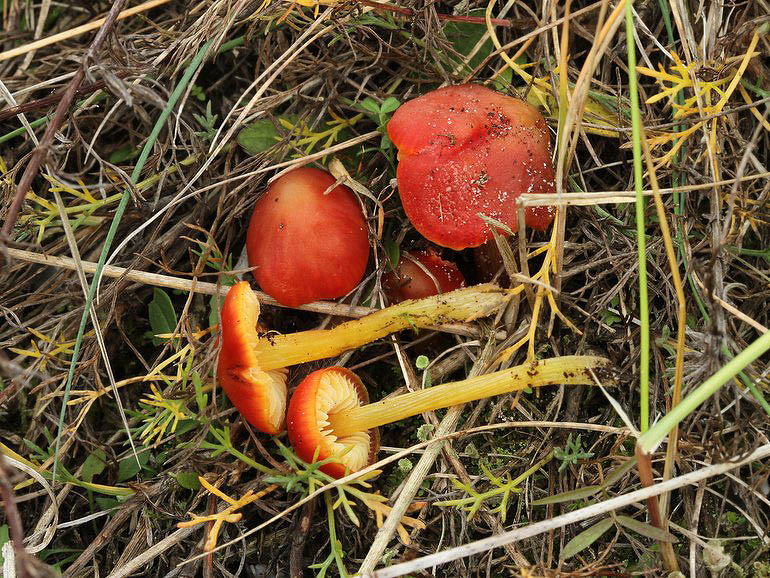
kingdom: Fungi
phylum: Basidiomycota
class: Agaricomycetes
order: Agaricales
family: Hygrophoraceae
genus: Hygrocybe
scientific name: Hygrocybe conicoides
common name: klit-vokshat
